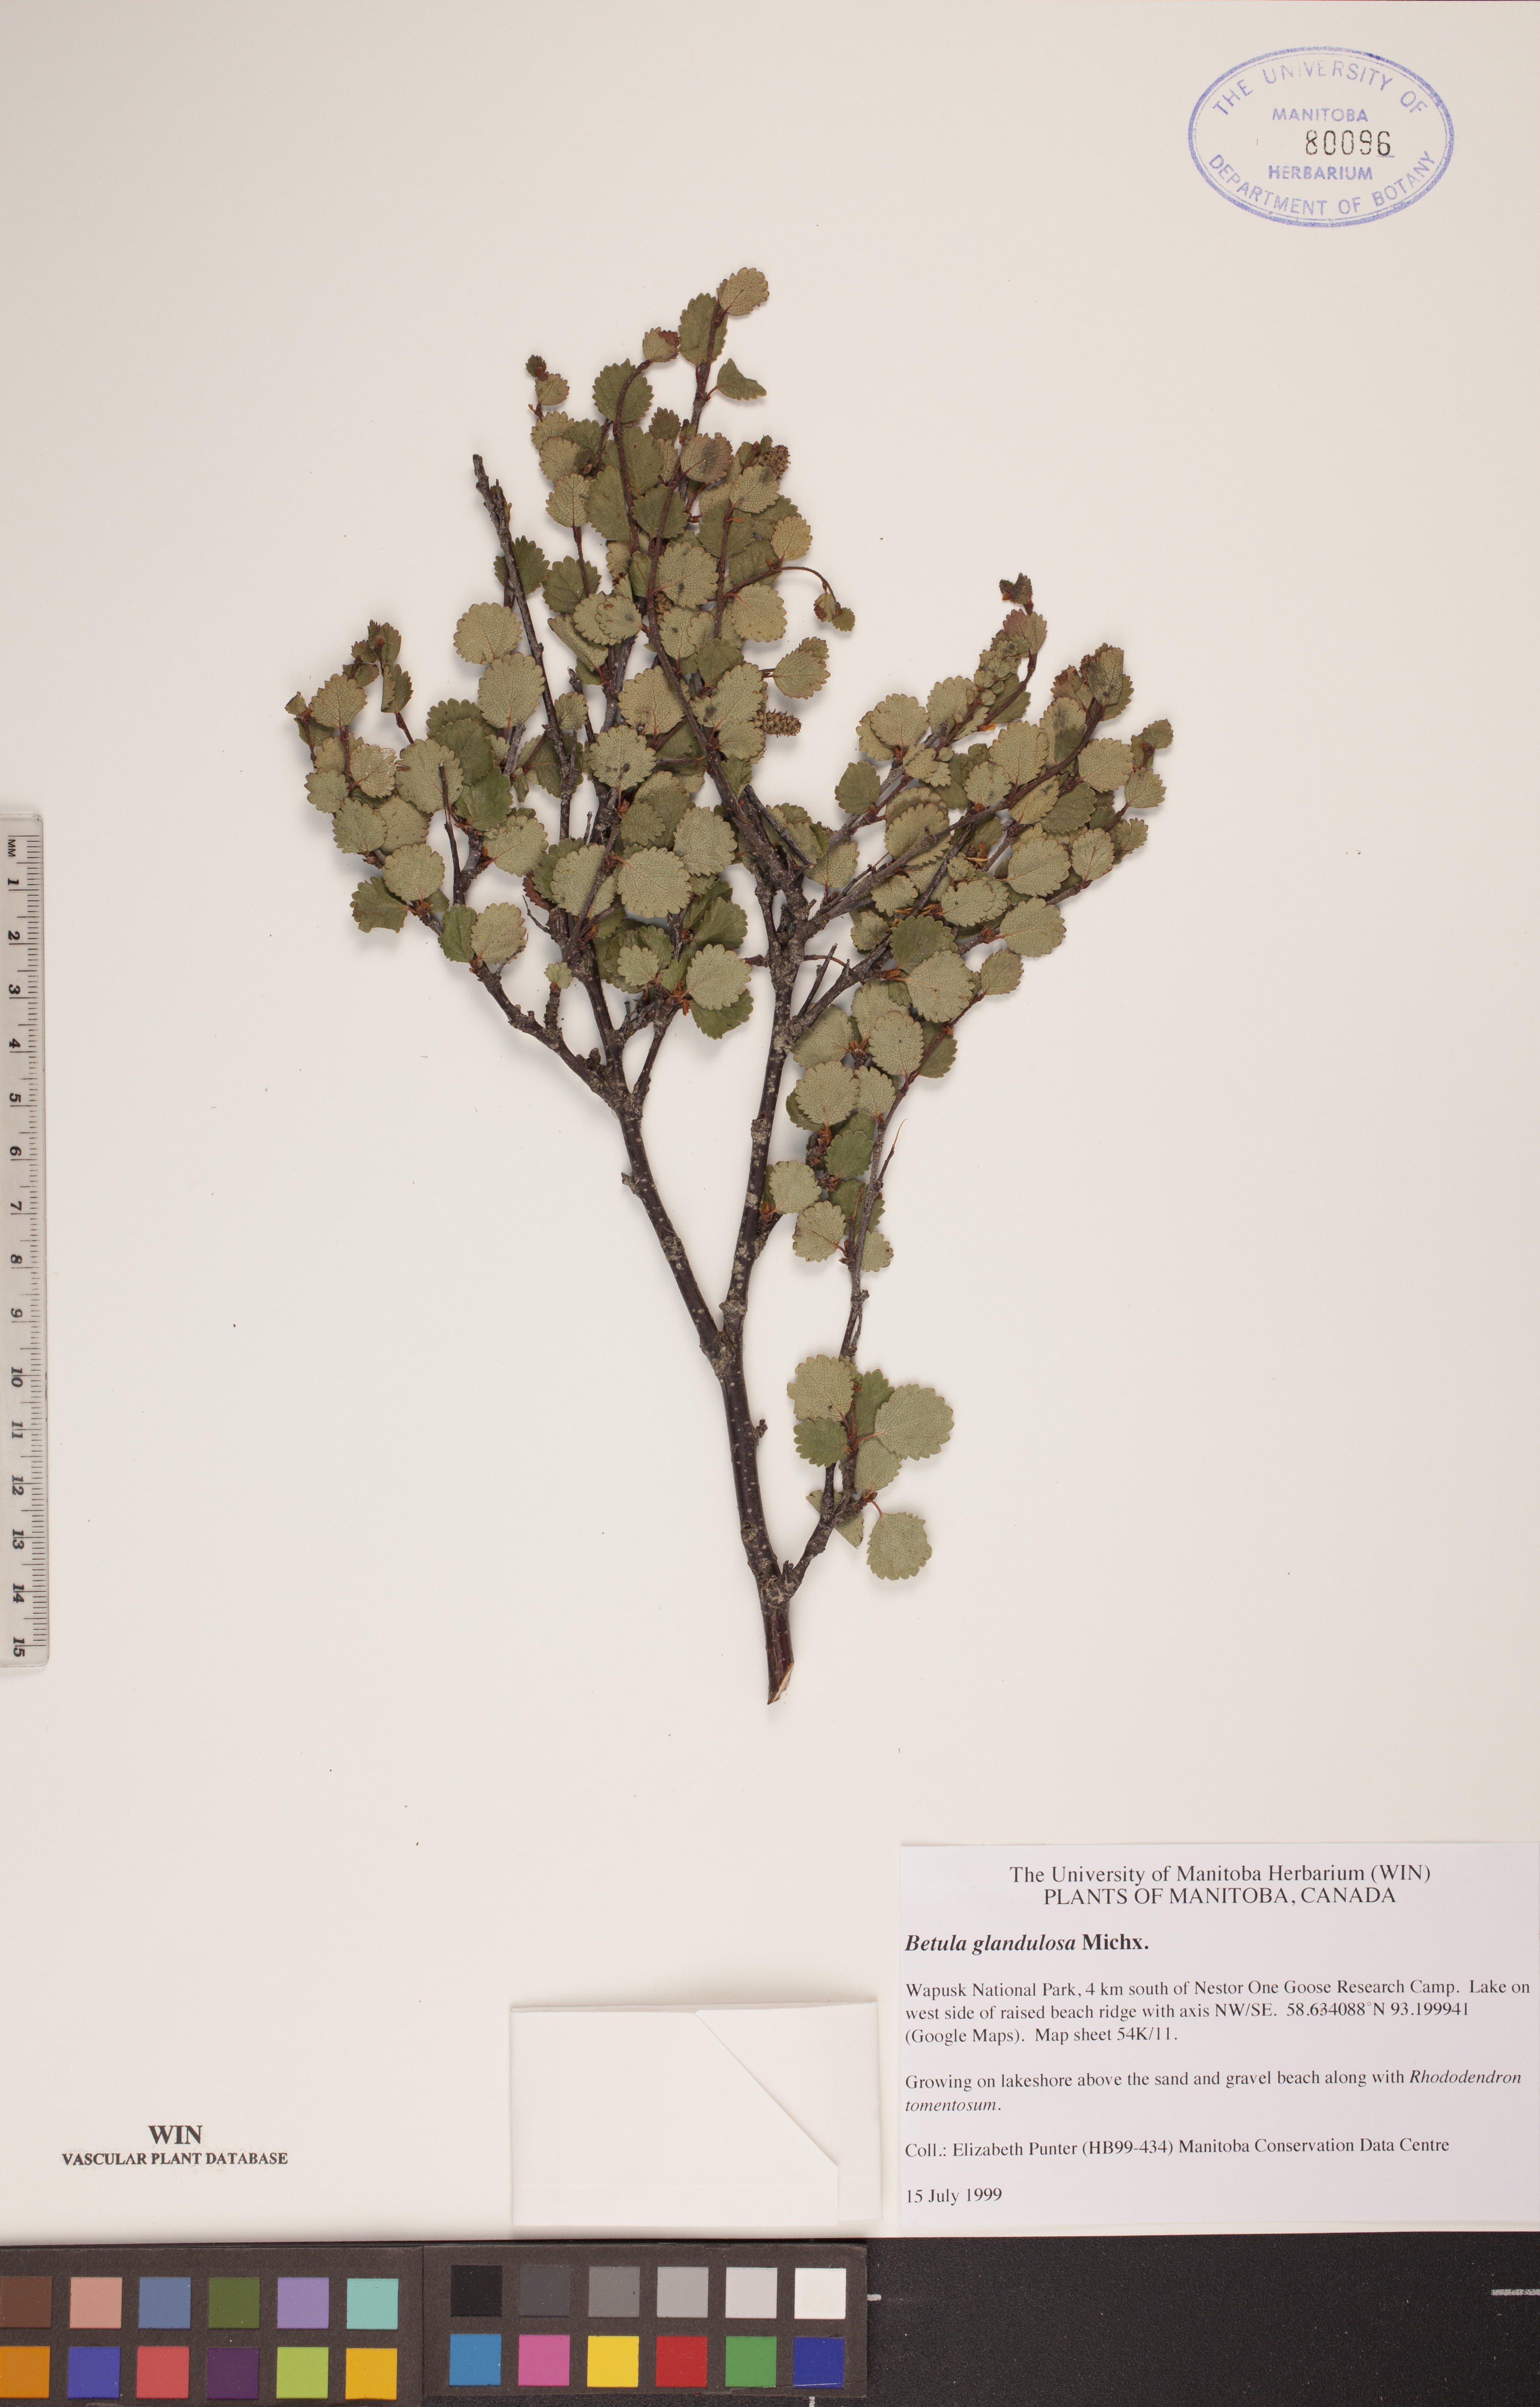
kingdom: Plantae
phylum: Tracheophyta
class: Magnoliopsida
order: Fagales
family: Betulaceae
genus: Betula
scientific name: Betula glandulosa
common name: Dwarf birch
